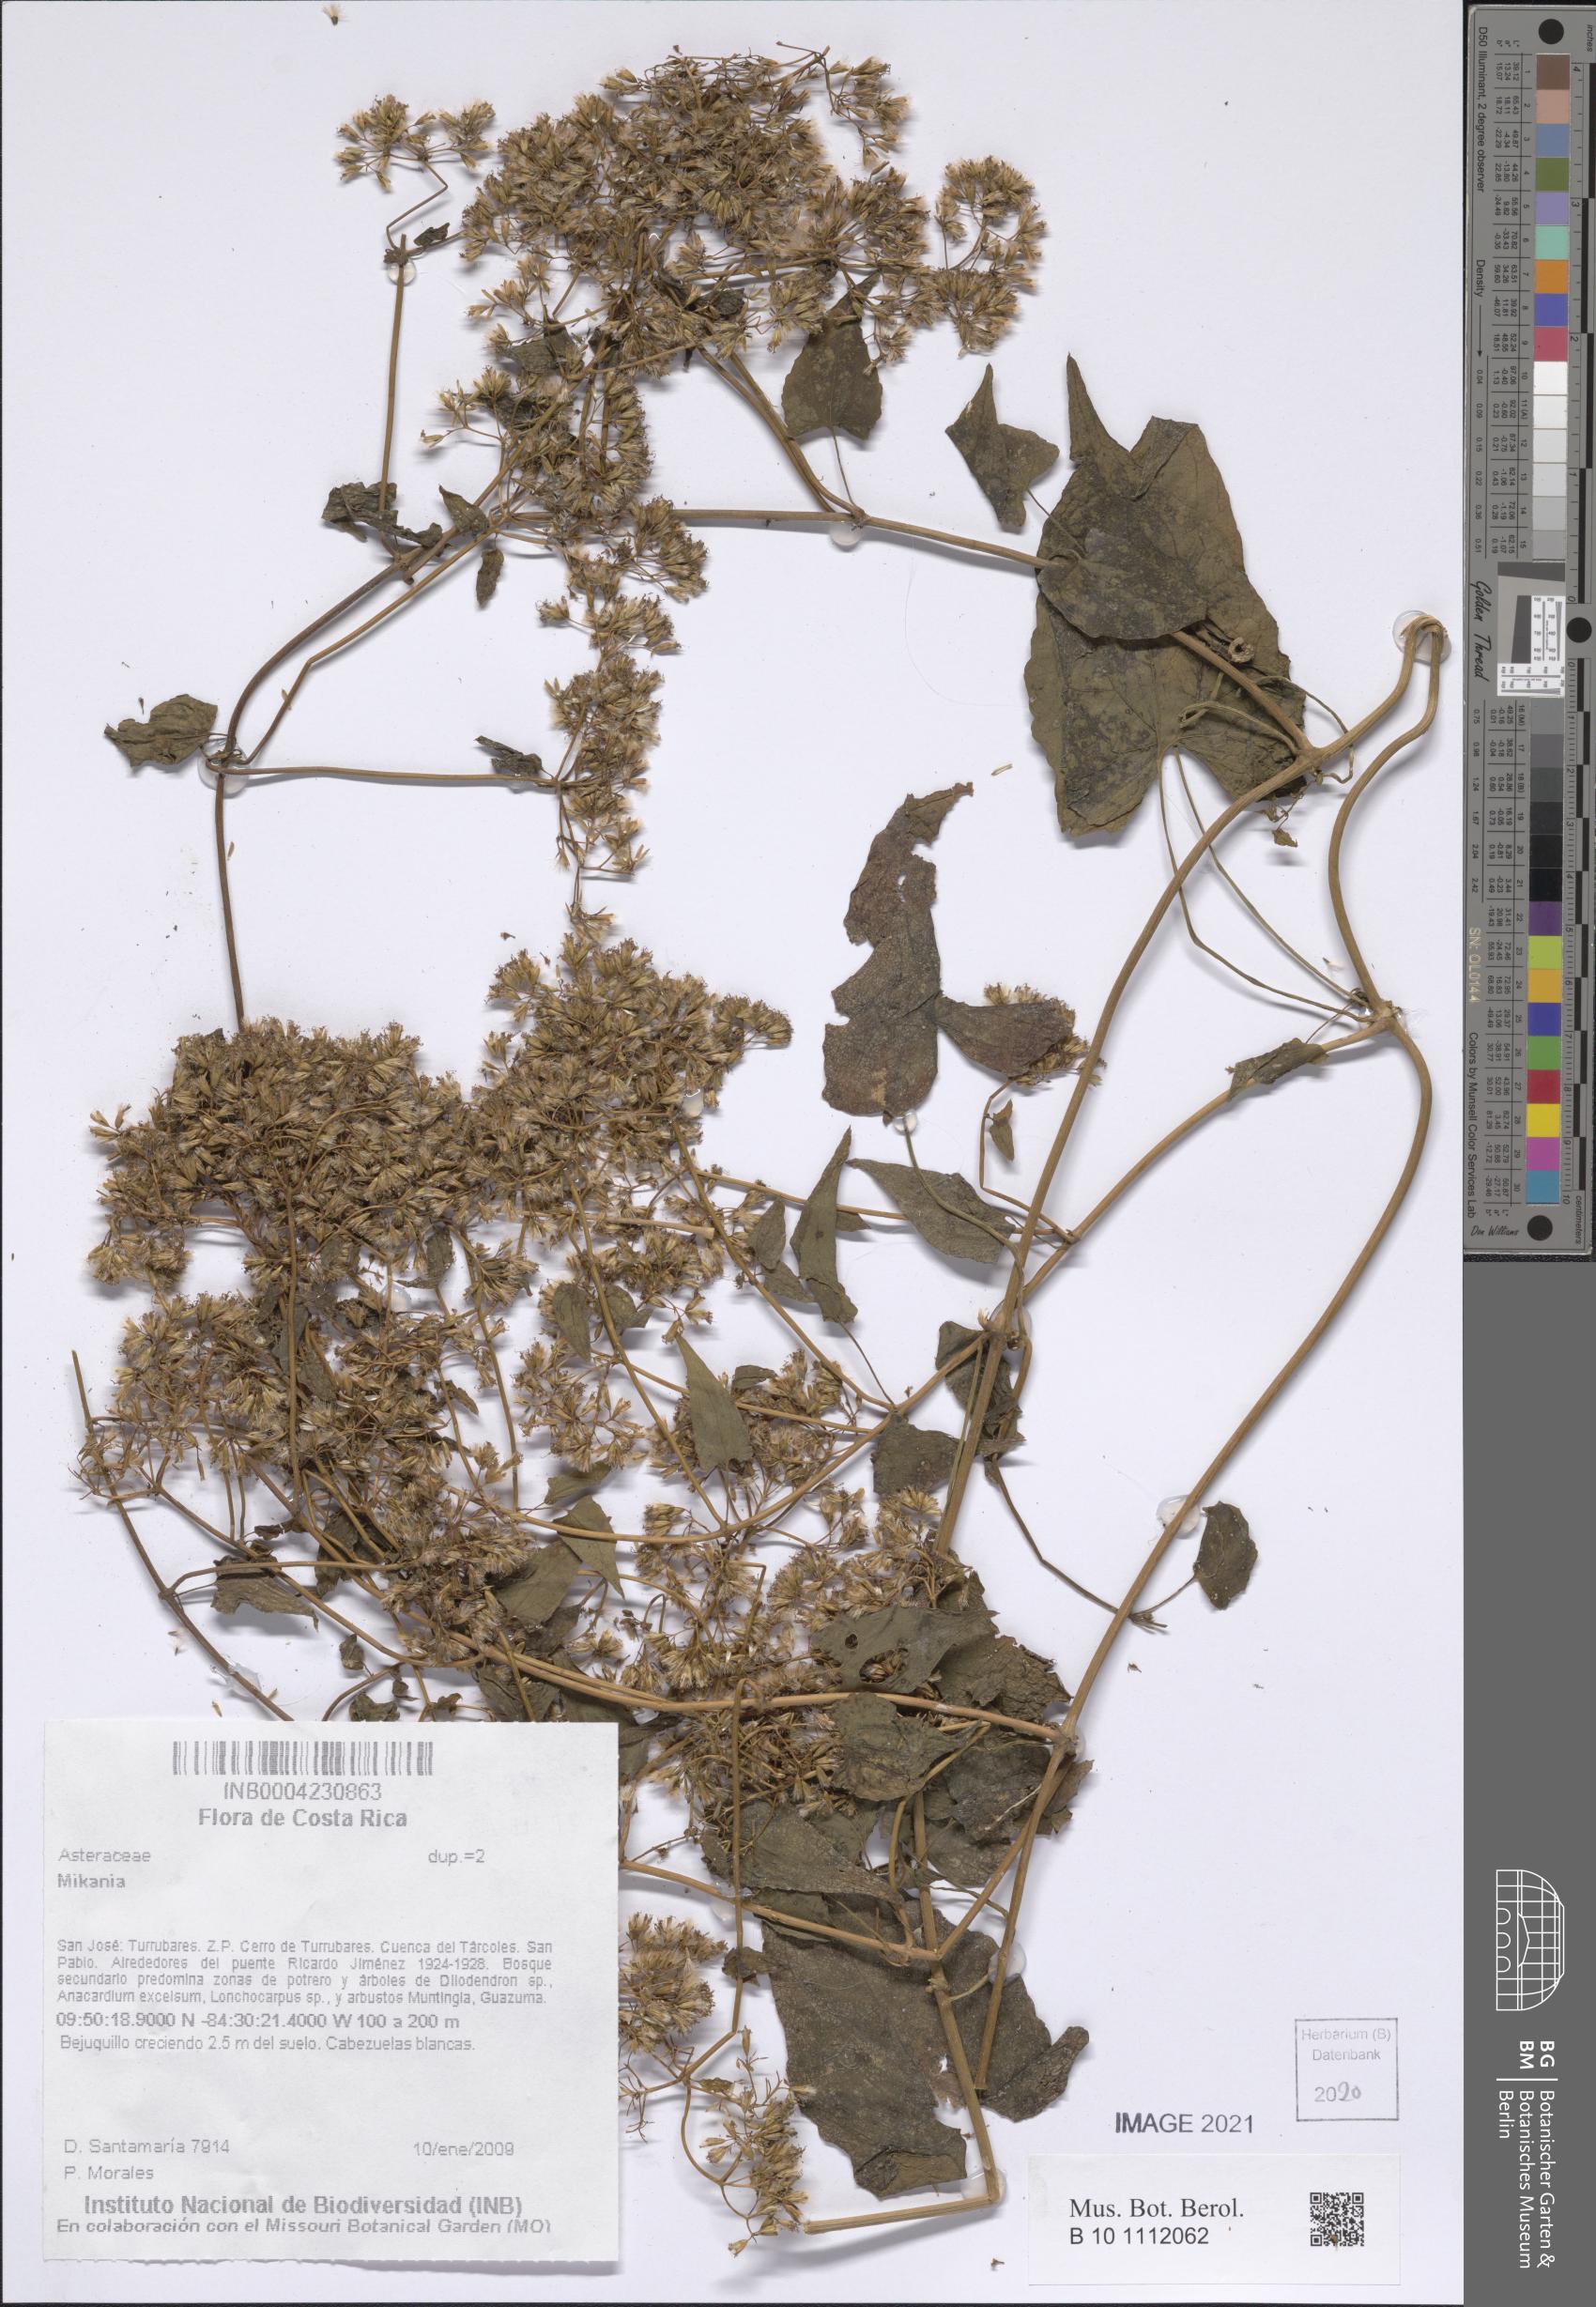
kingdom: Plantae
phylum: Tracheophyta
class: Magnoliopsida
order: Asterales
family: Asteraceae
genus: Mikania
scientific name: Mikania
